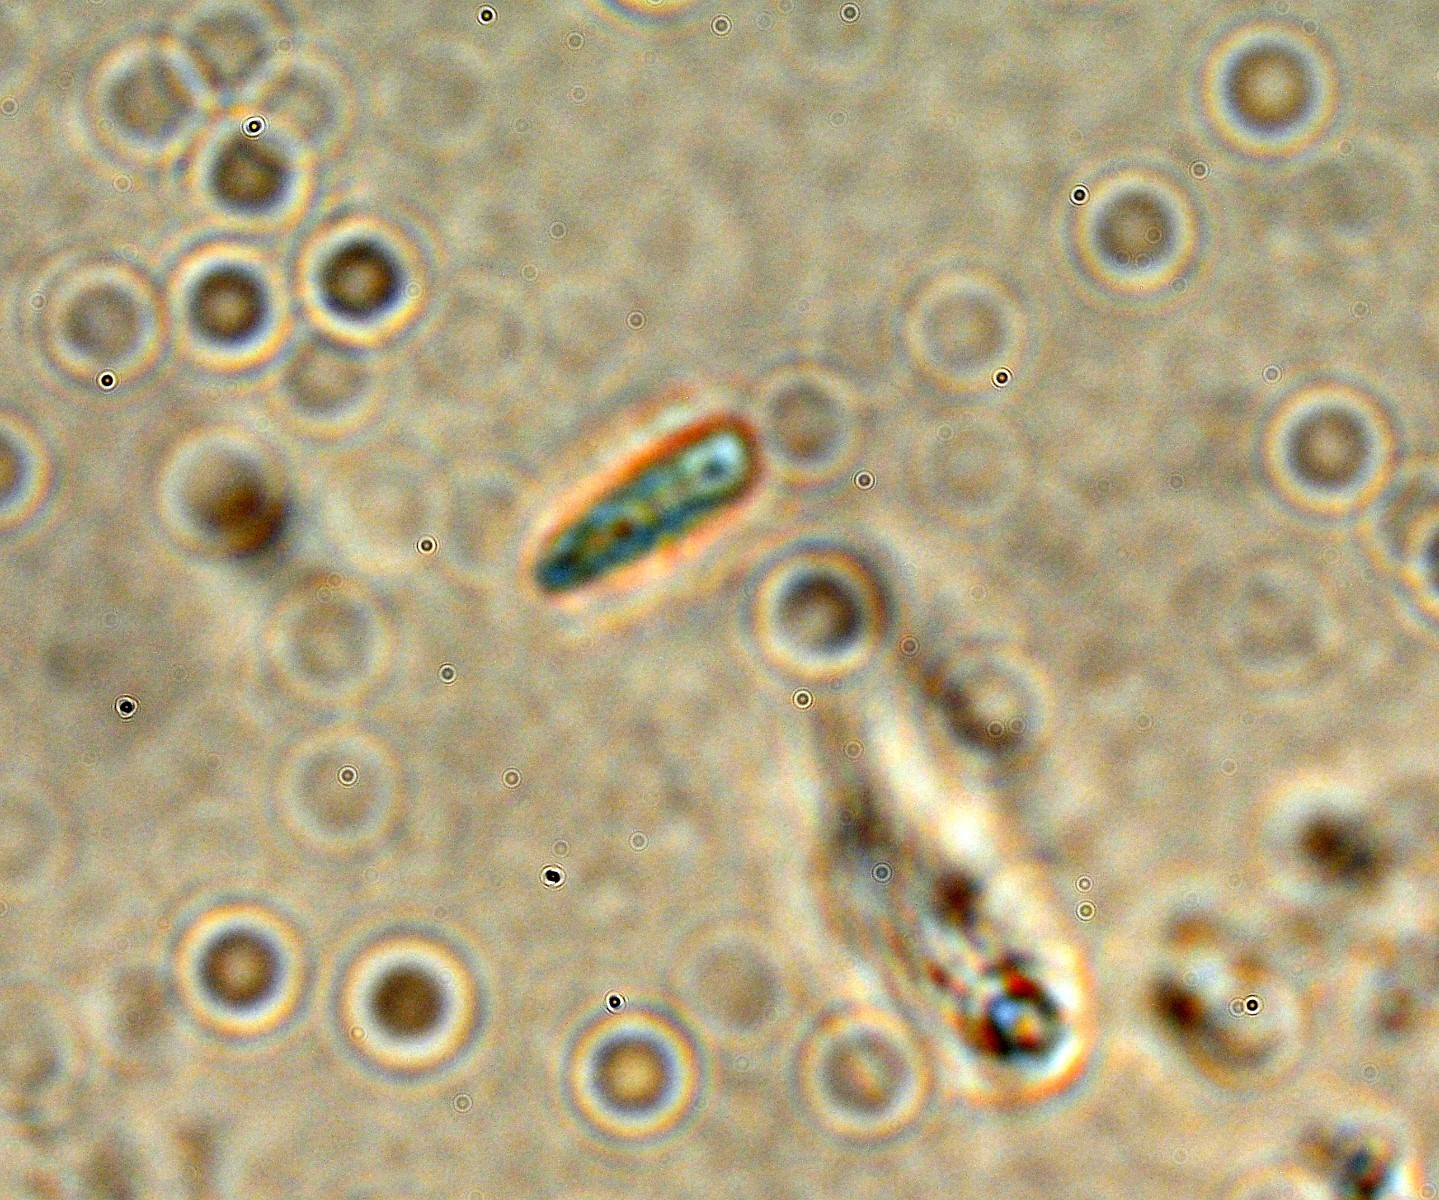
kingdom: Fungi
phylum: Ascomycota
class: Leotiomycetes
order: Helotiales
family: Arachnopezizaceae
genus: Eriopezia
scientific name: Eriopezia caesia
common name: ege-spindskive
